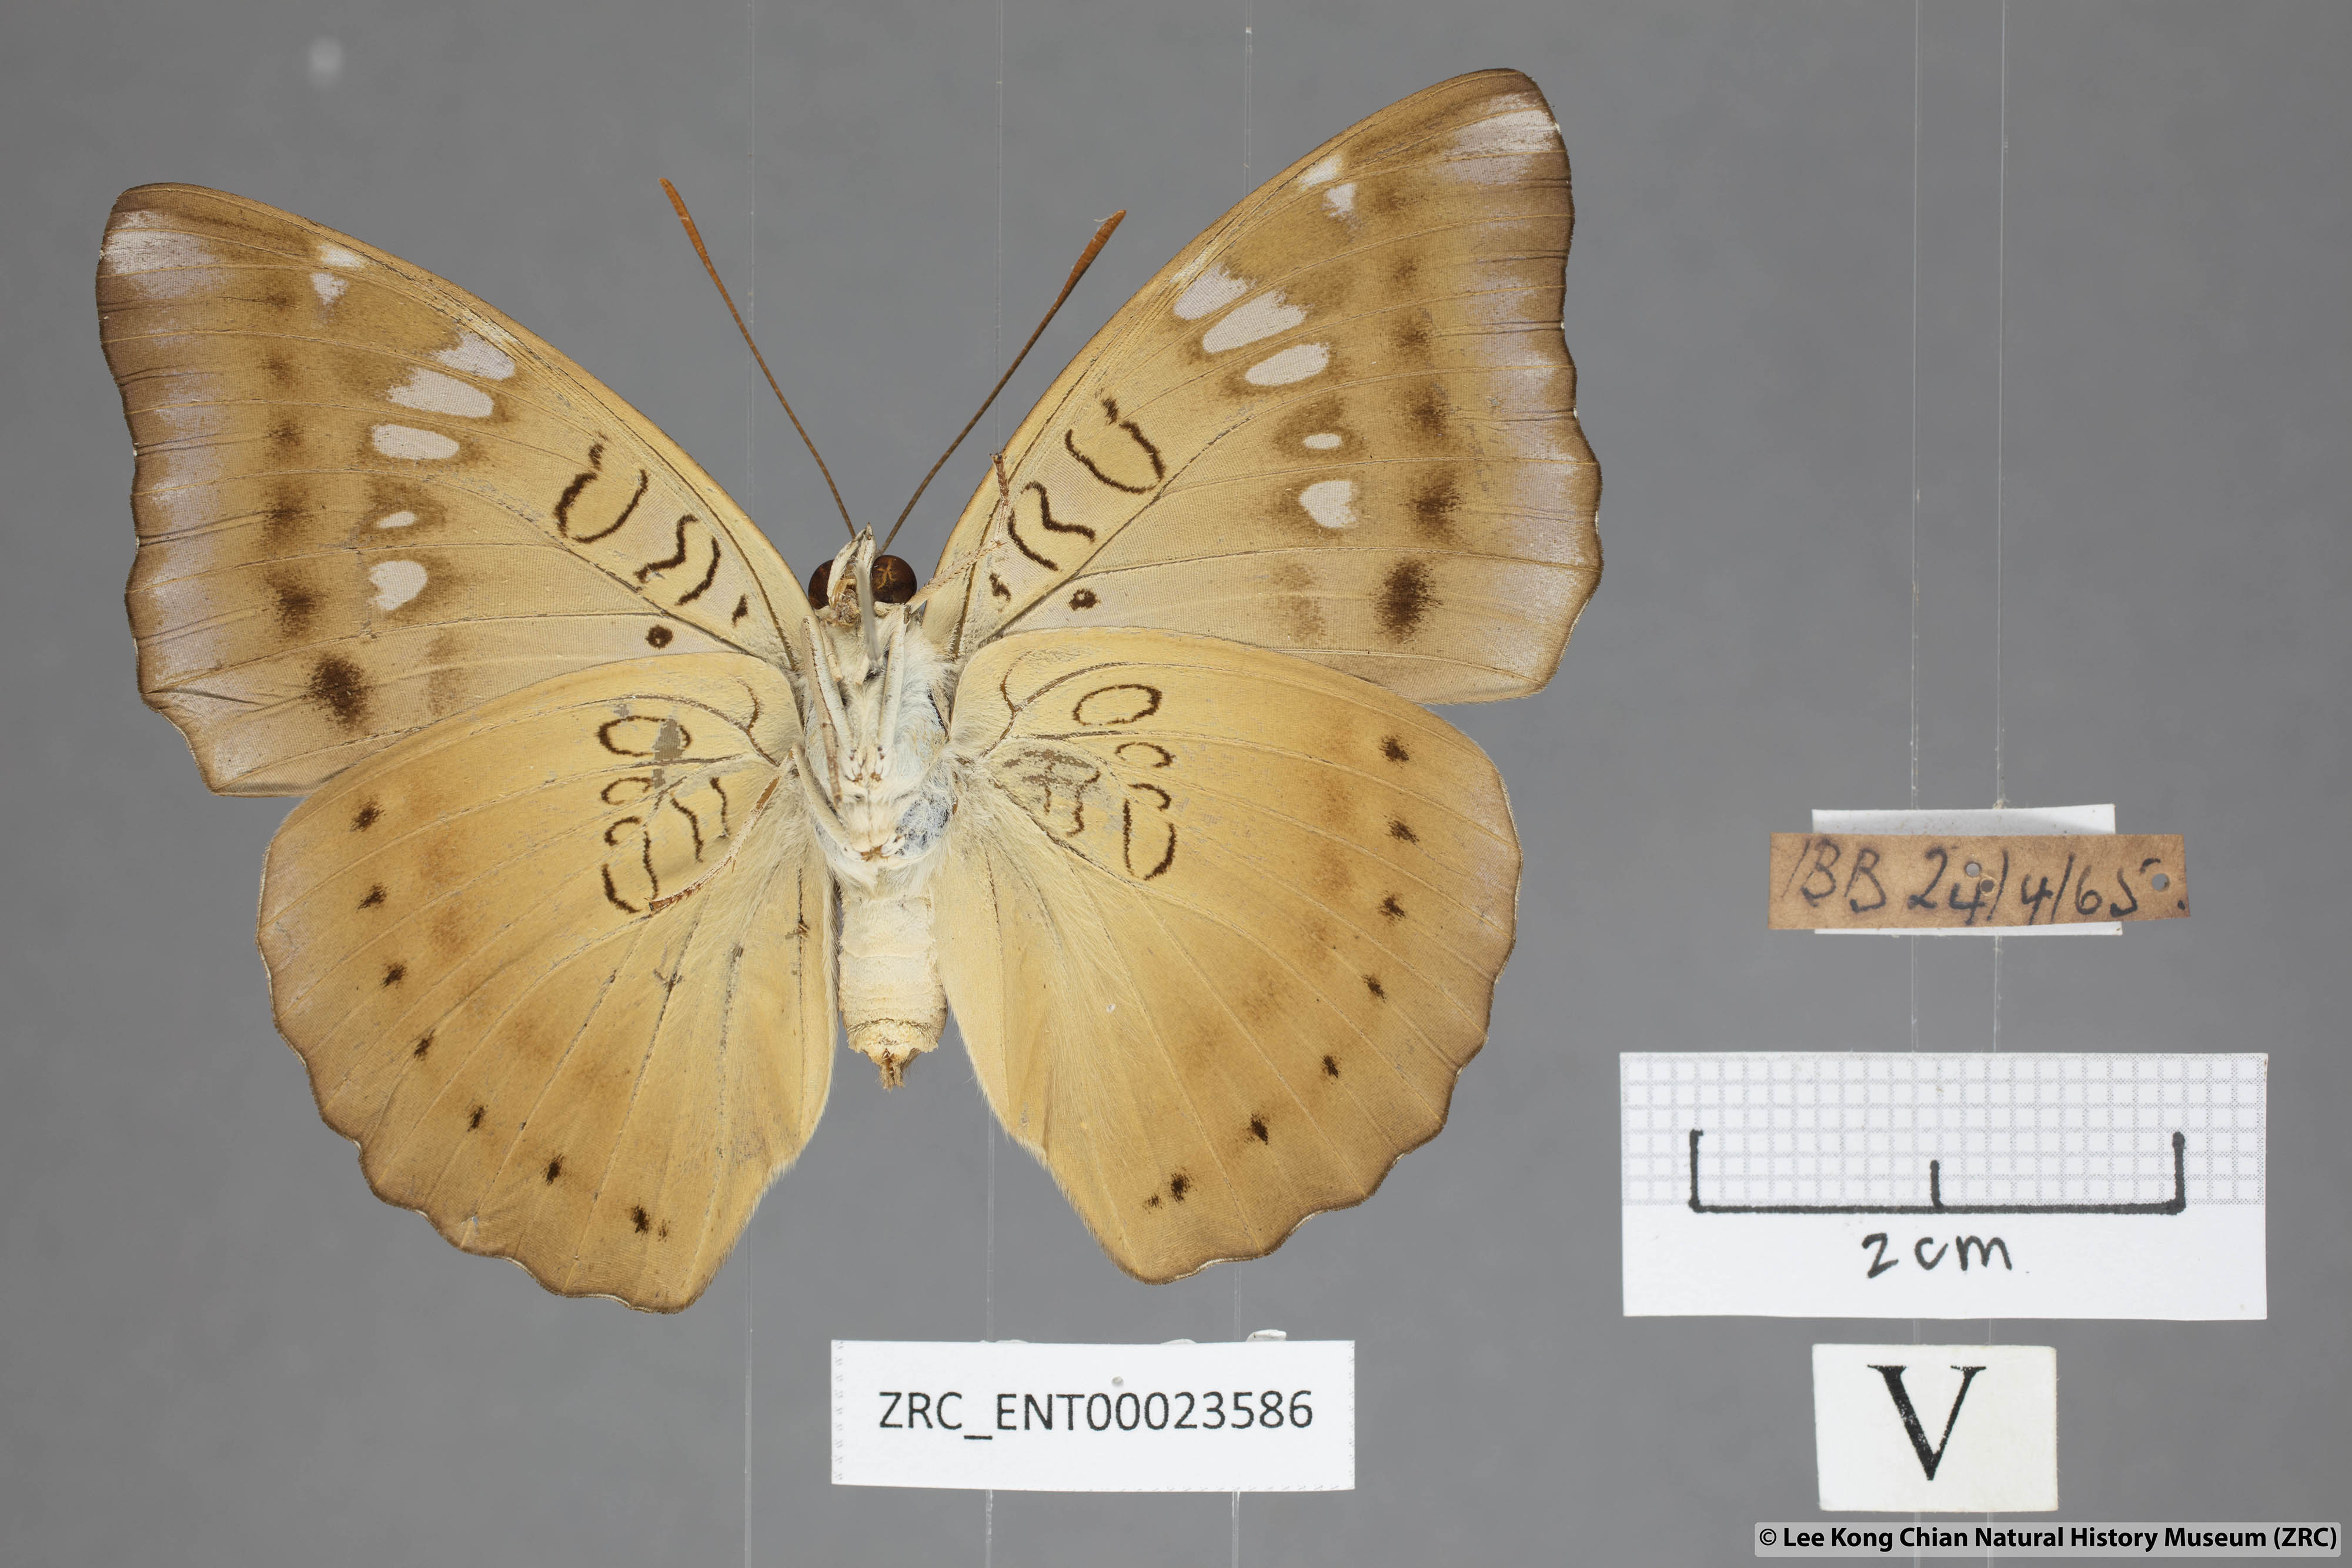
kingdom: Animalia
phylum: Arthropoda
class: Insecta
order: Lepidoptera
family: Nymphalidae
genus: Euthalia
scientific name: Euthalia aconthea
